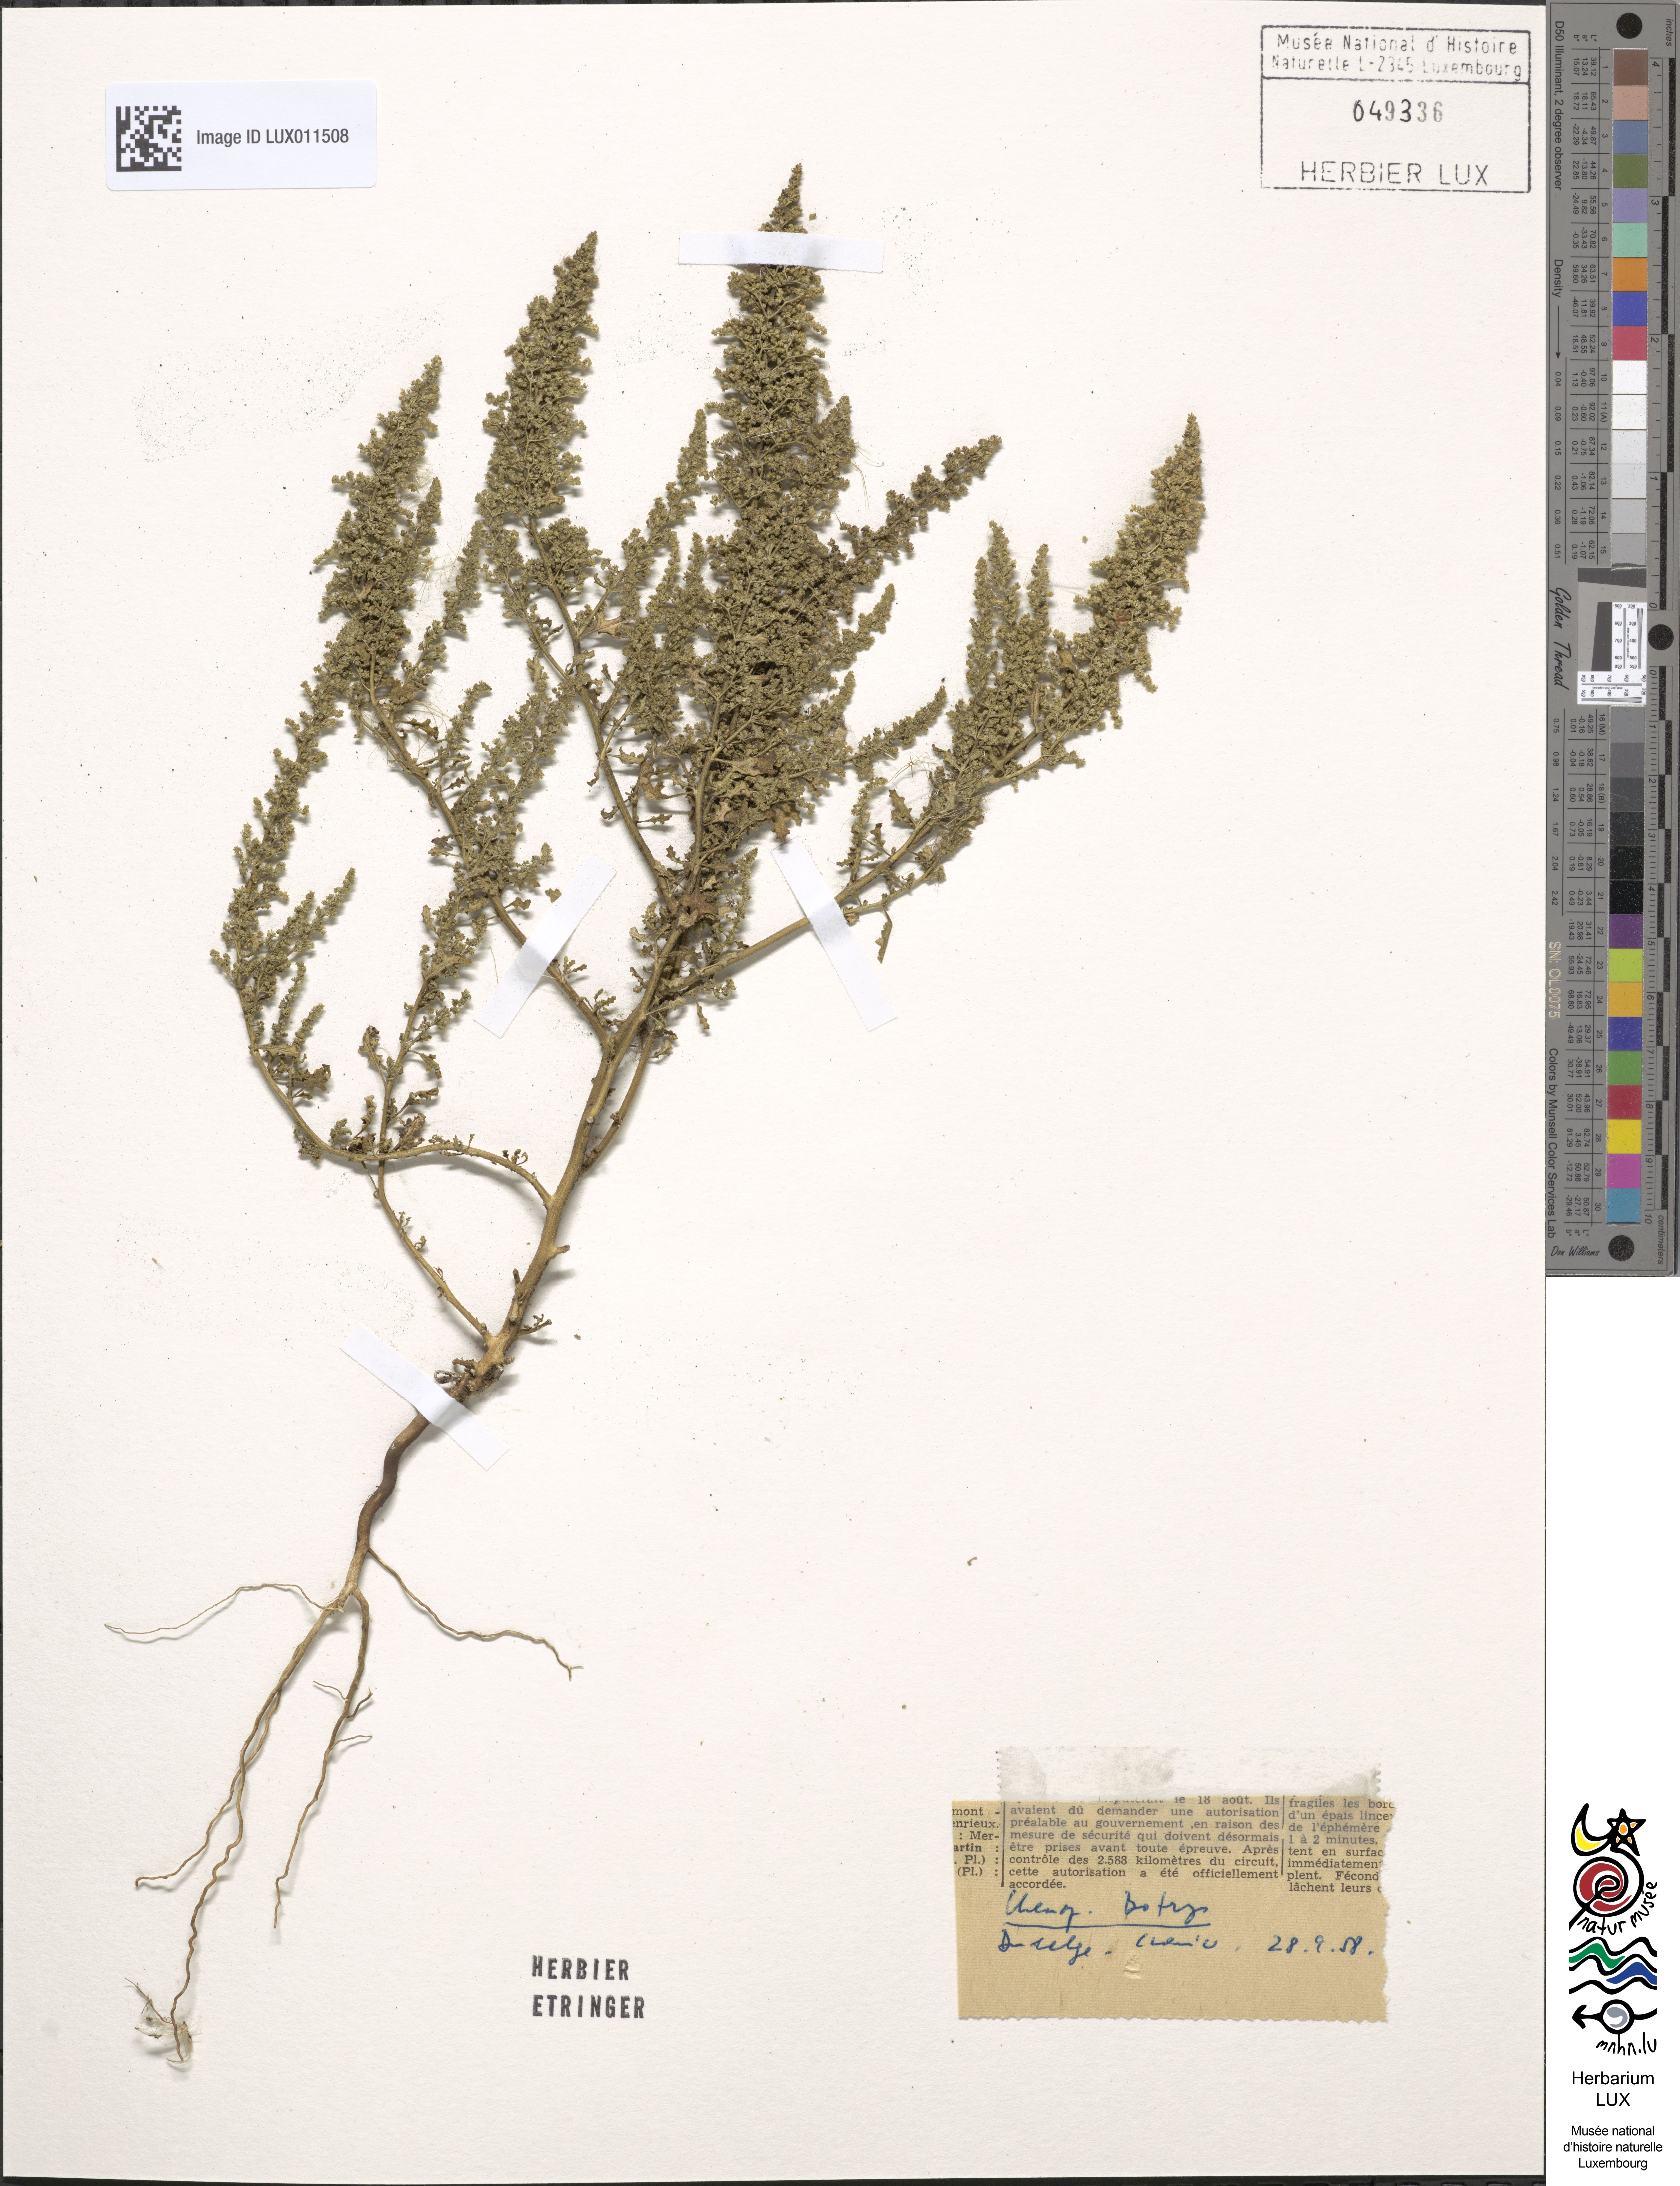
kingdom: Plantae
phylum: Tracheophyta
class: Magnoliopsida
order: Caryophyllales
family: Amaranthaceae
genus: Dysphania
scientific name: Dysphania botrys
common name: Feather-geranium
